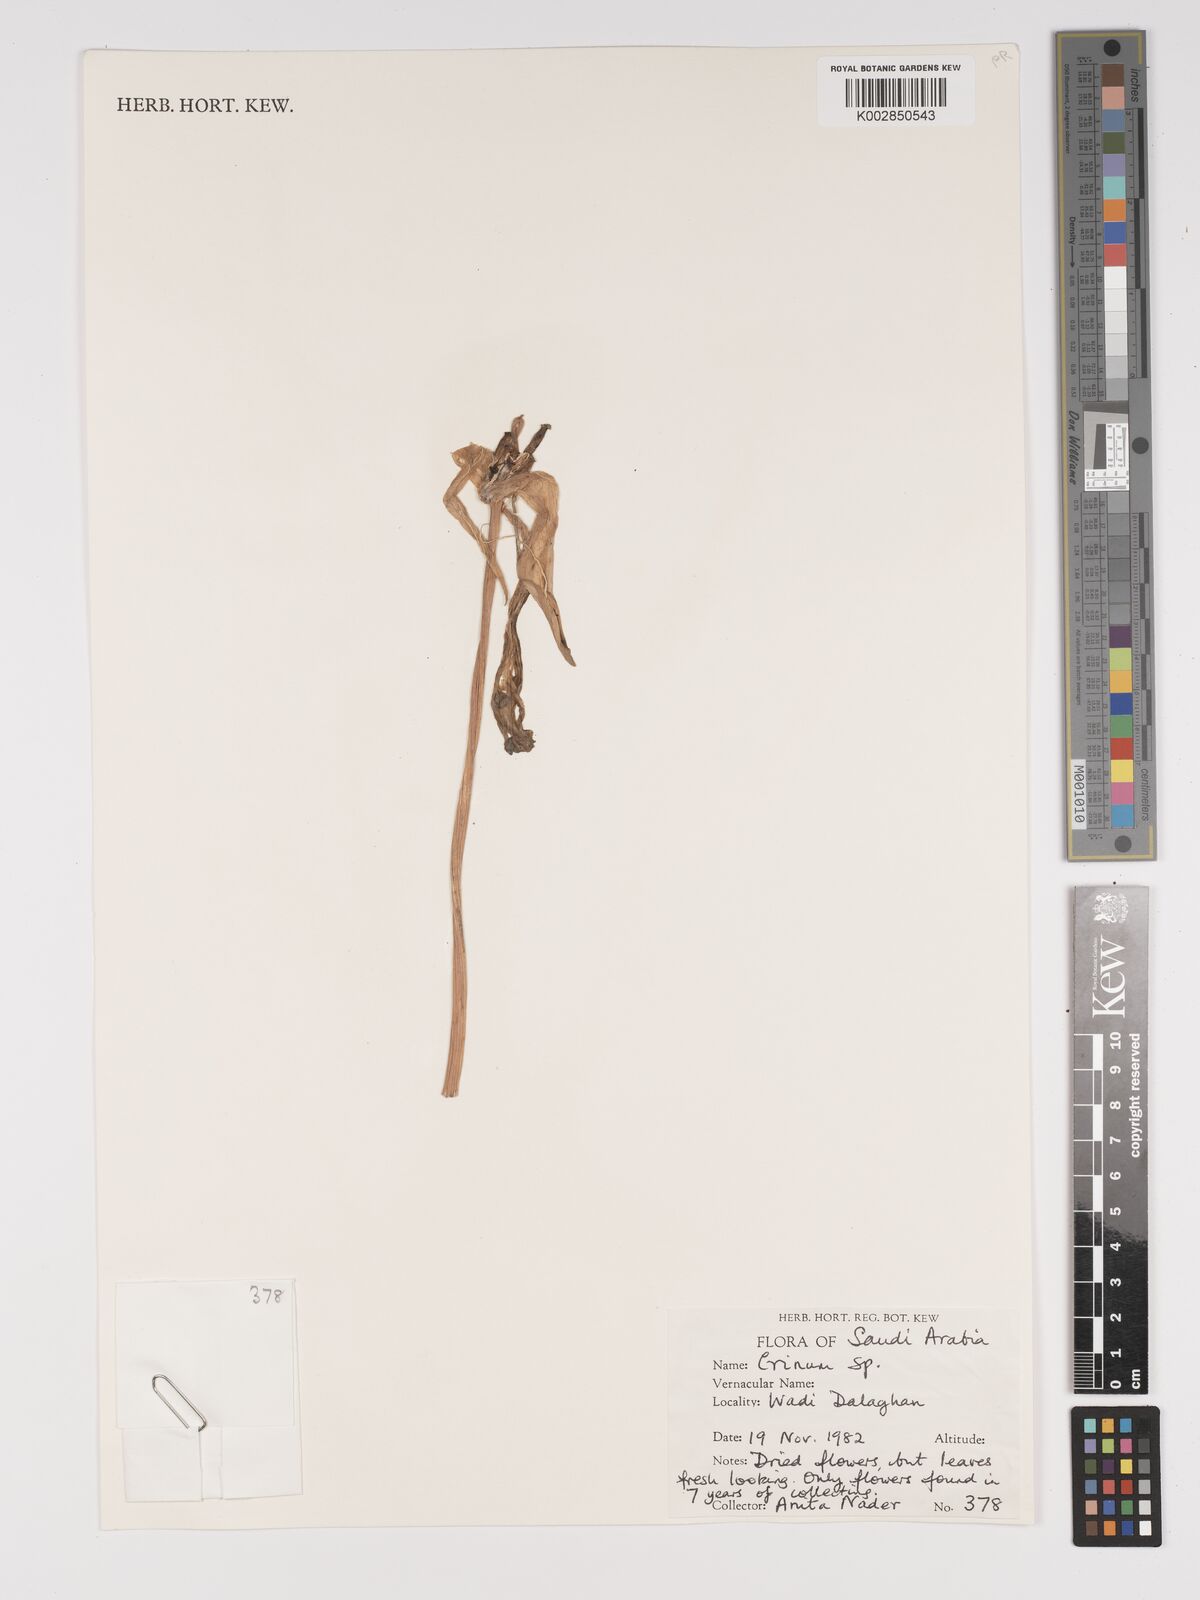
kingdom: Plantae
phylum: Tracheophyta
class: Liliopsida
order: Asparagales
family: Amaryllidaceae
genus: Crinum
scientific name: Crinum
